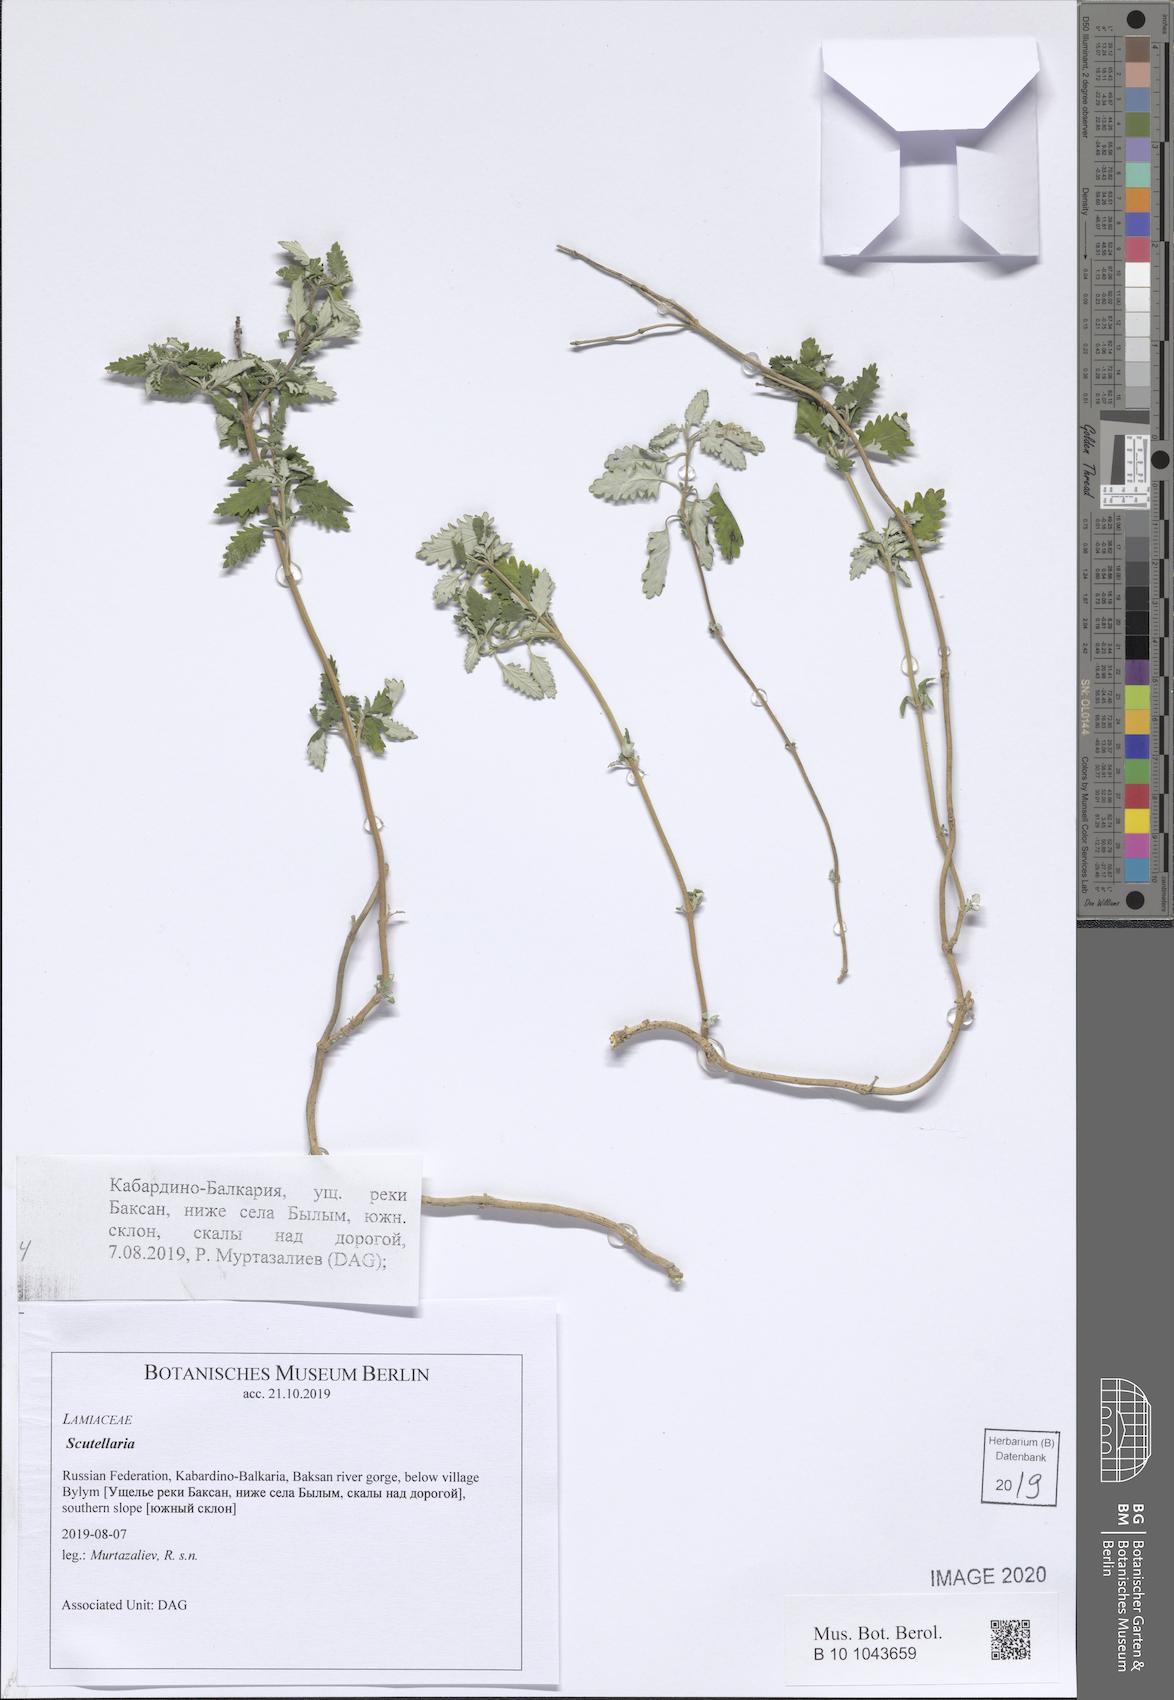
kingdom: Plantae
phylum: Tracheophyta
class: Magnoliopsida
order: Lamiales
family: Lamiaceae
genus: Scutellaria
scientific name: Scutellaria
